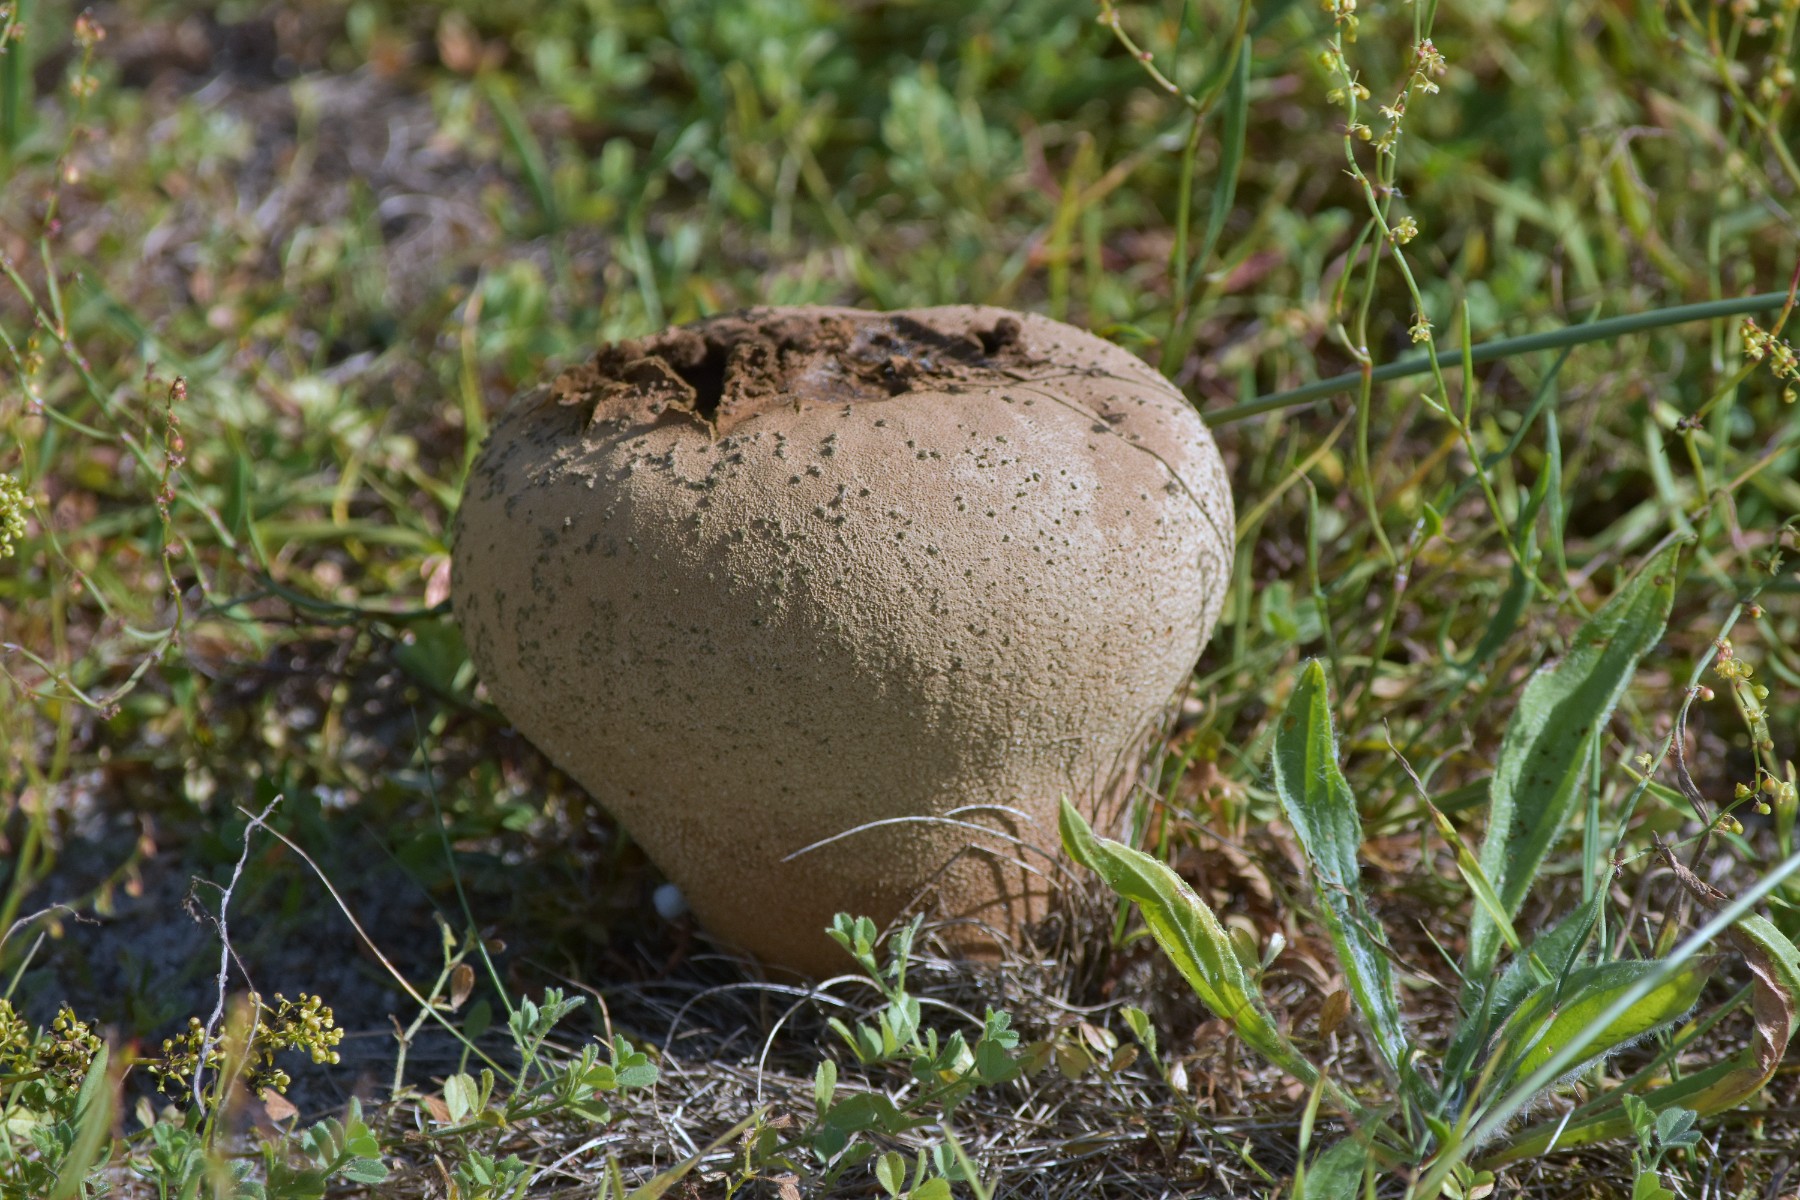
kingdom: Fungi
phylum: Basidiomycota
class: Agaricomycetes
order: Agaricales
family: Lycoperdaceae
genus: Bovistella
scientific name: Bovistella utriformis
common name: skællet støvbold
